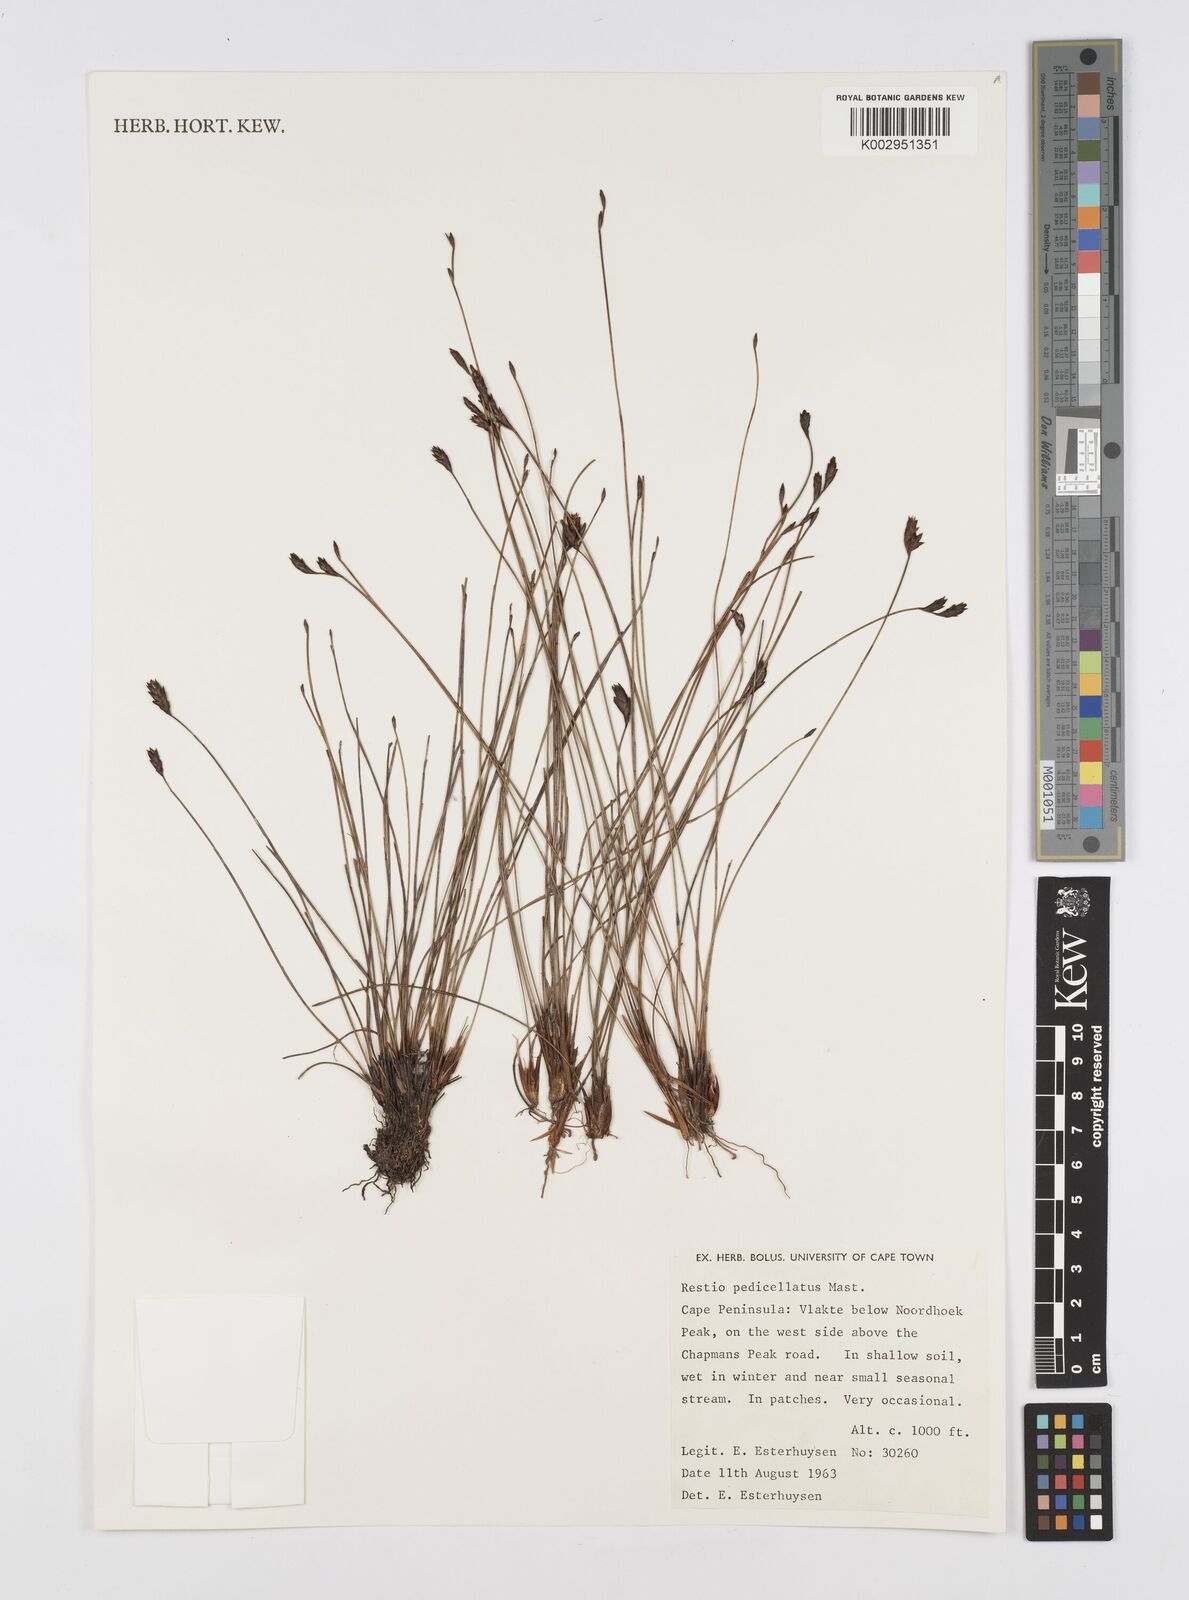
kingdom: Plantae
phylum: Tracheophyta
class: Liliopsida
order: Poales
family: Restionaceae
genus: Restio
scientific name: Restio pedicellatus
